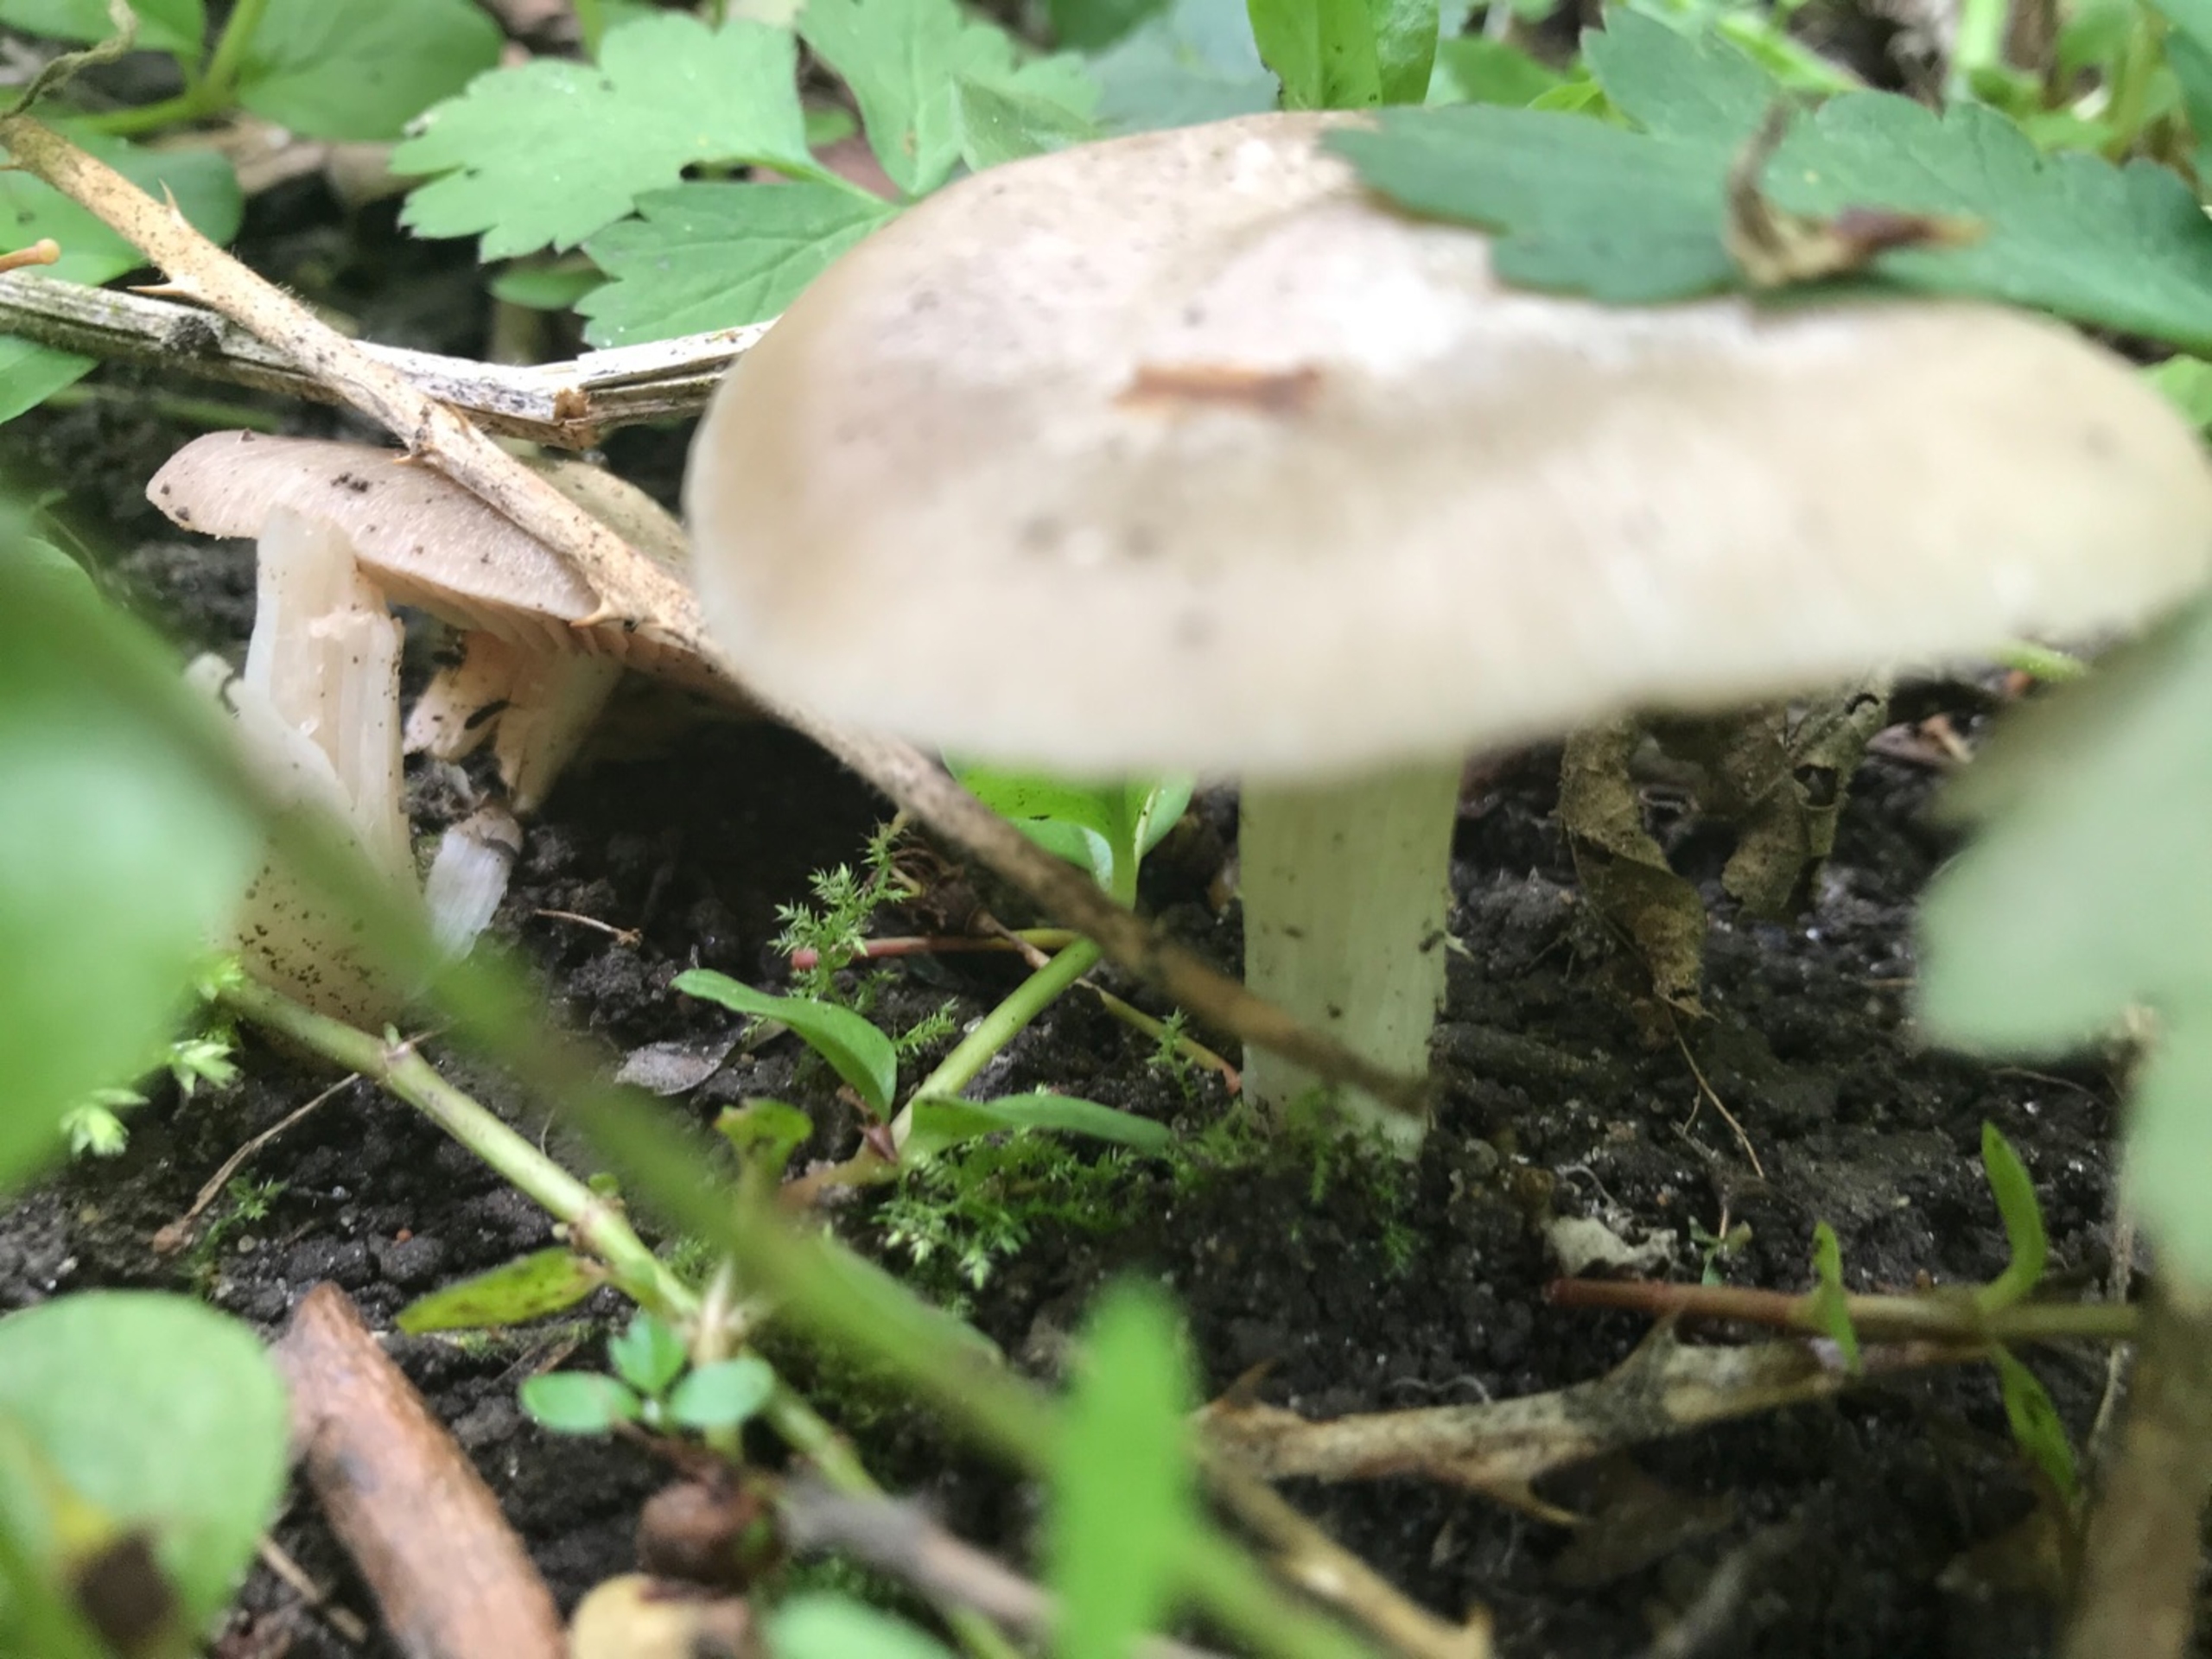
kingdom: Fungi
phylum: Basidiomycota
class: Agaricomycetes
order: Agaricales
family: Entolomataceae
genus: Entoloma
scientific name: Entoloma
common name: Rødblad
